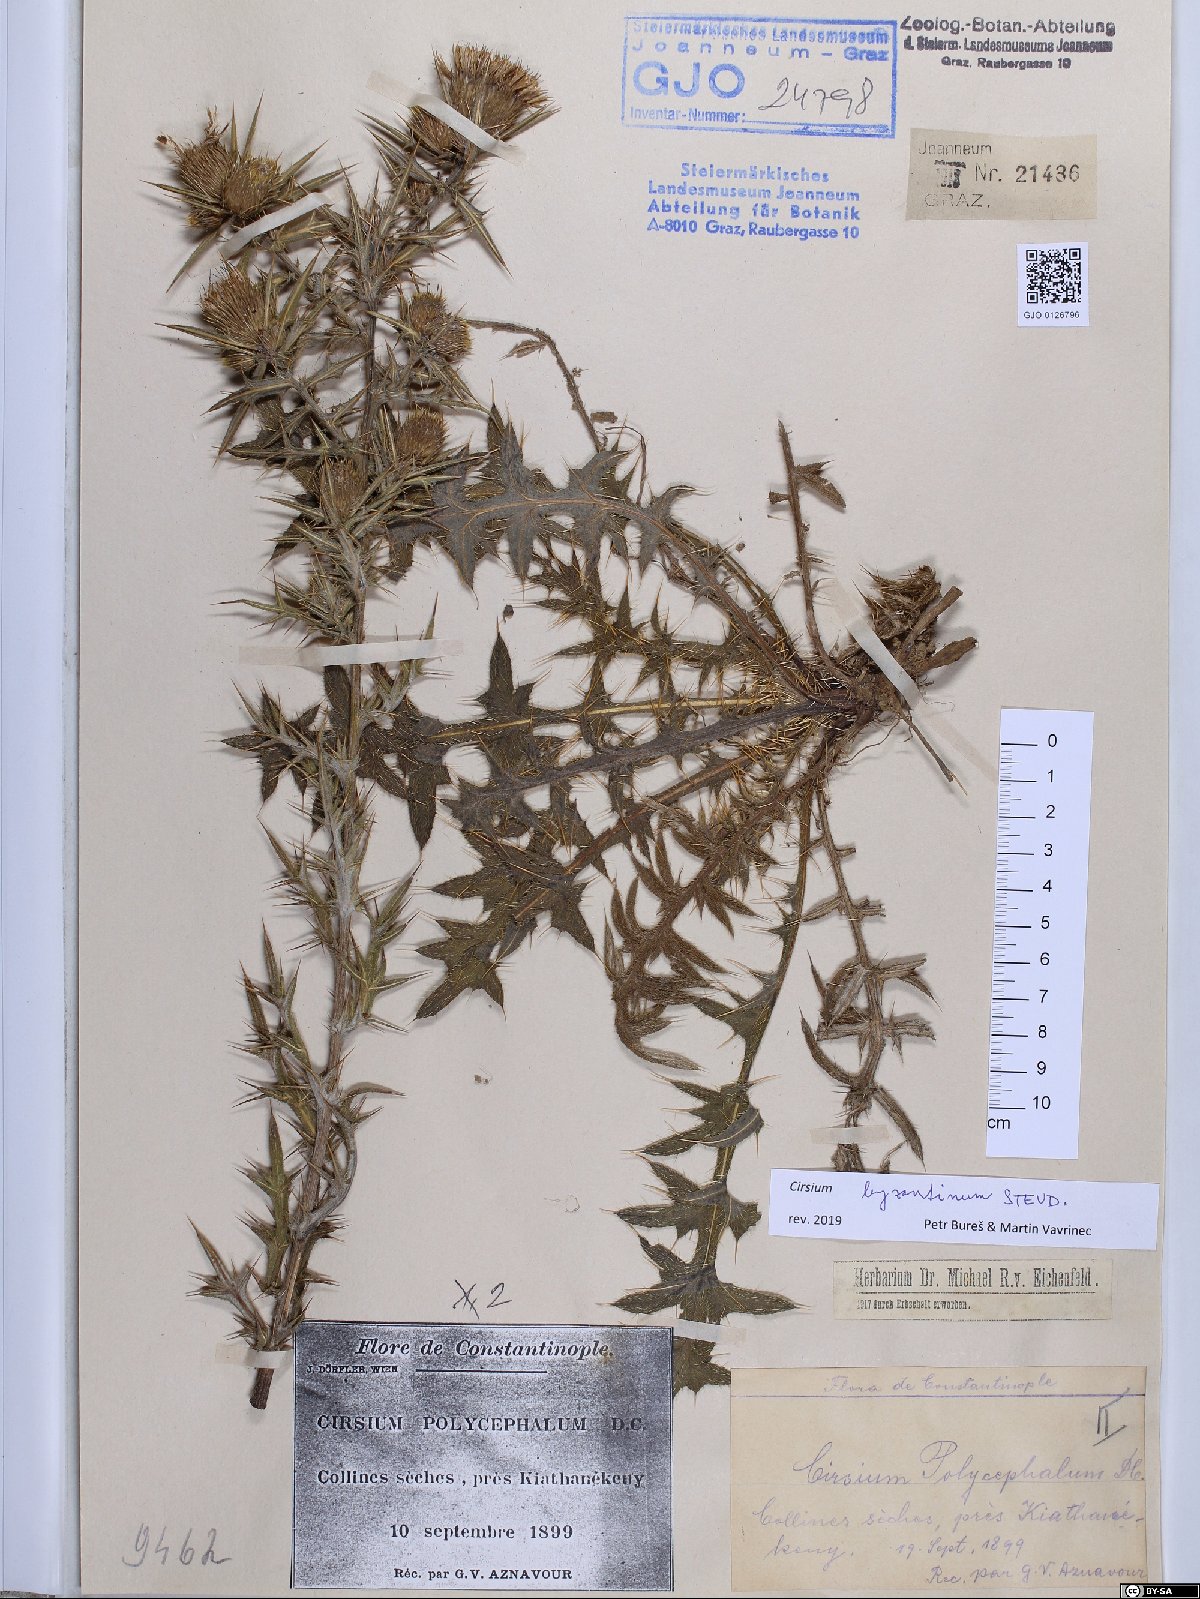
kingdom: Plantae
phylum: Tracheophyta
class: Magnoliopsida
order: Asterales
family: Asteraceae
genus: Lophiolepis
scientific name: Lophiolepis byzantina
